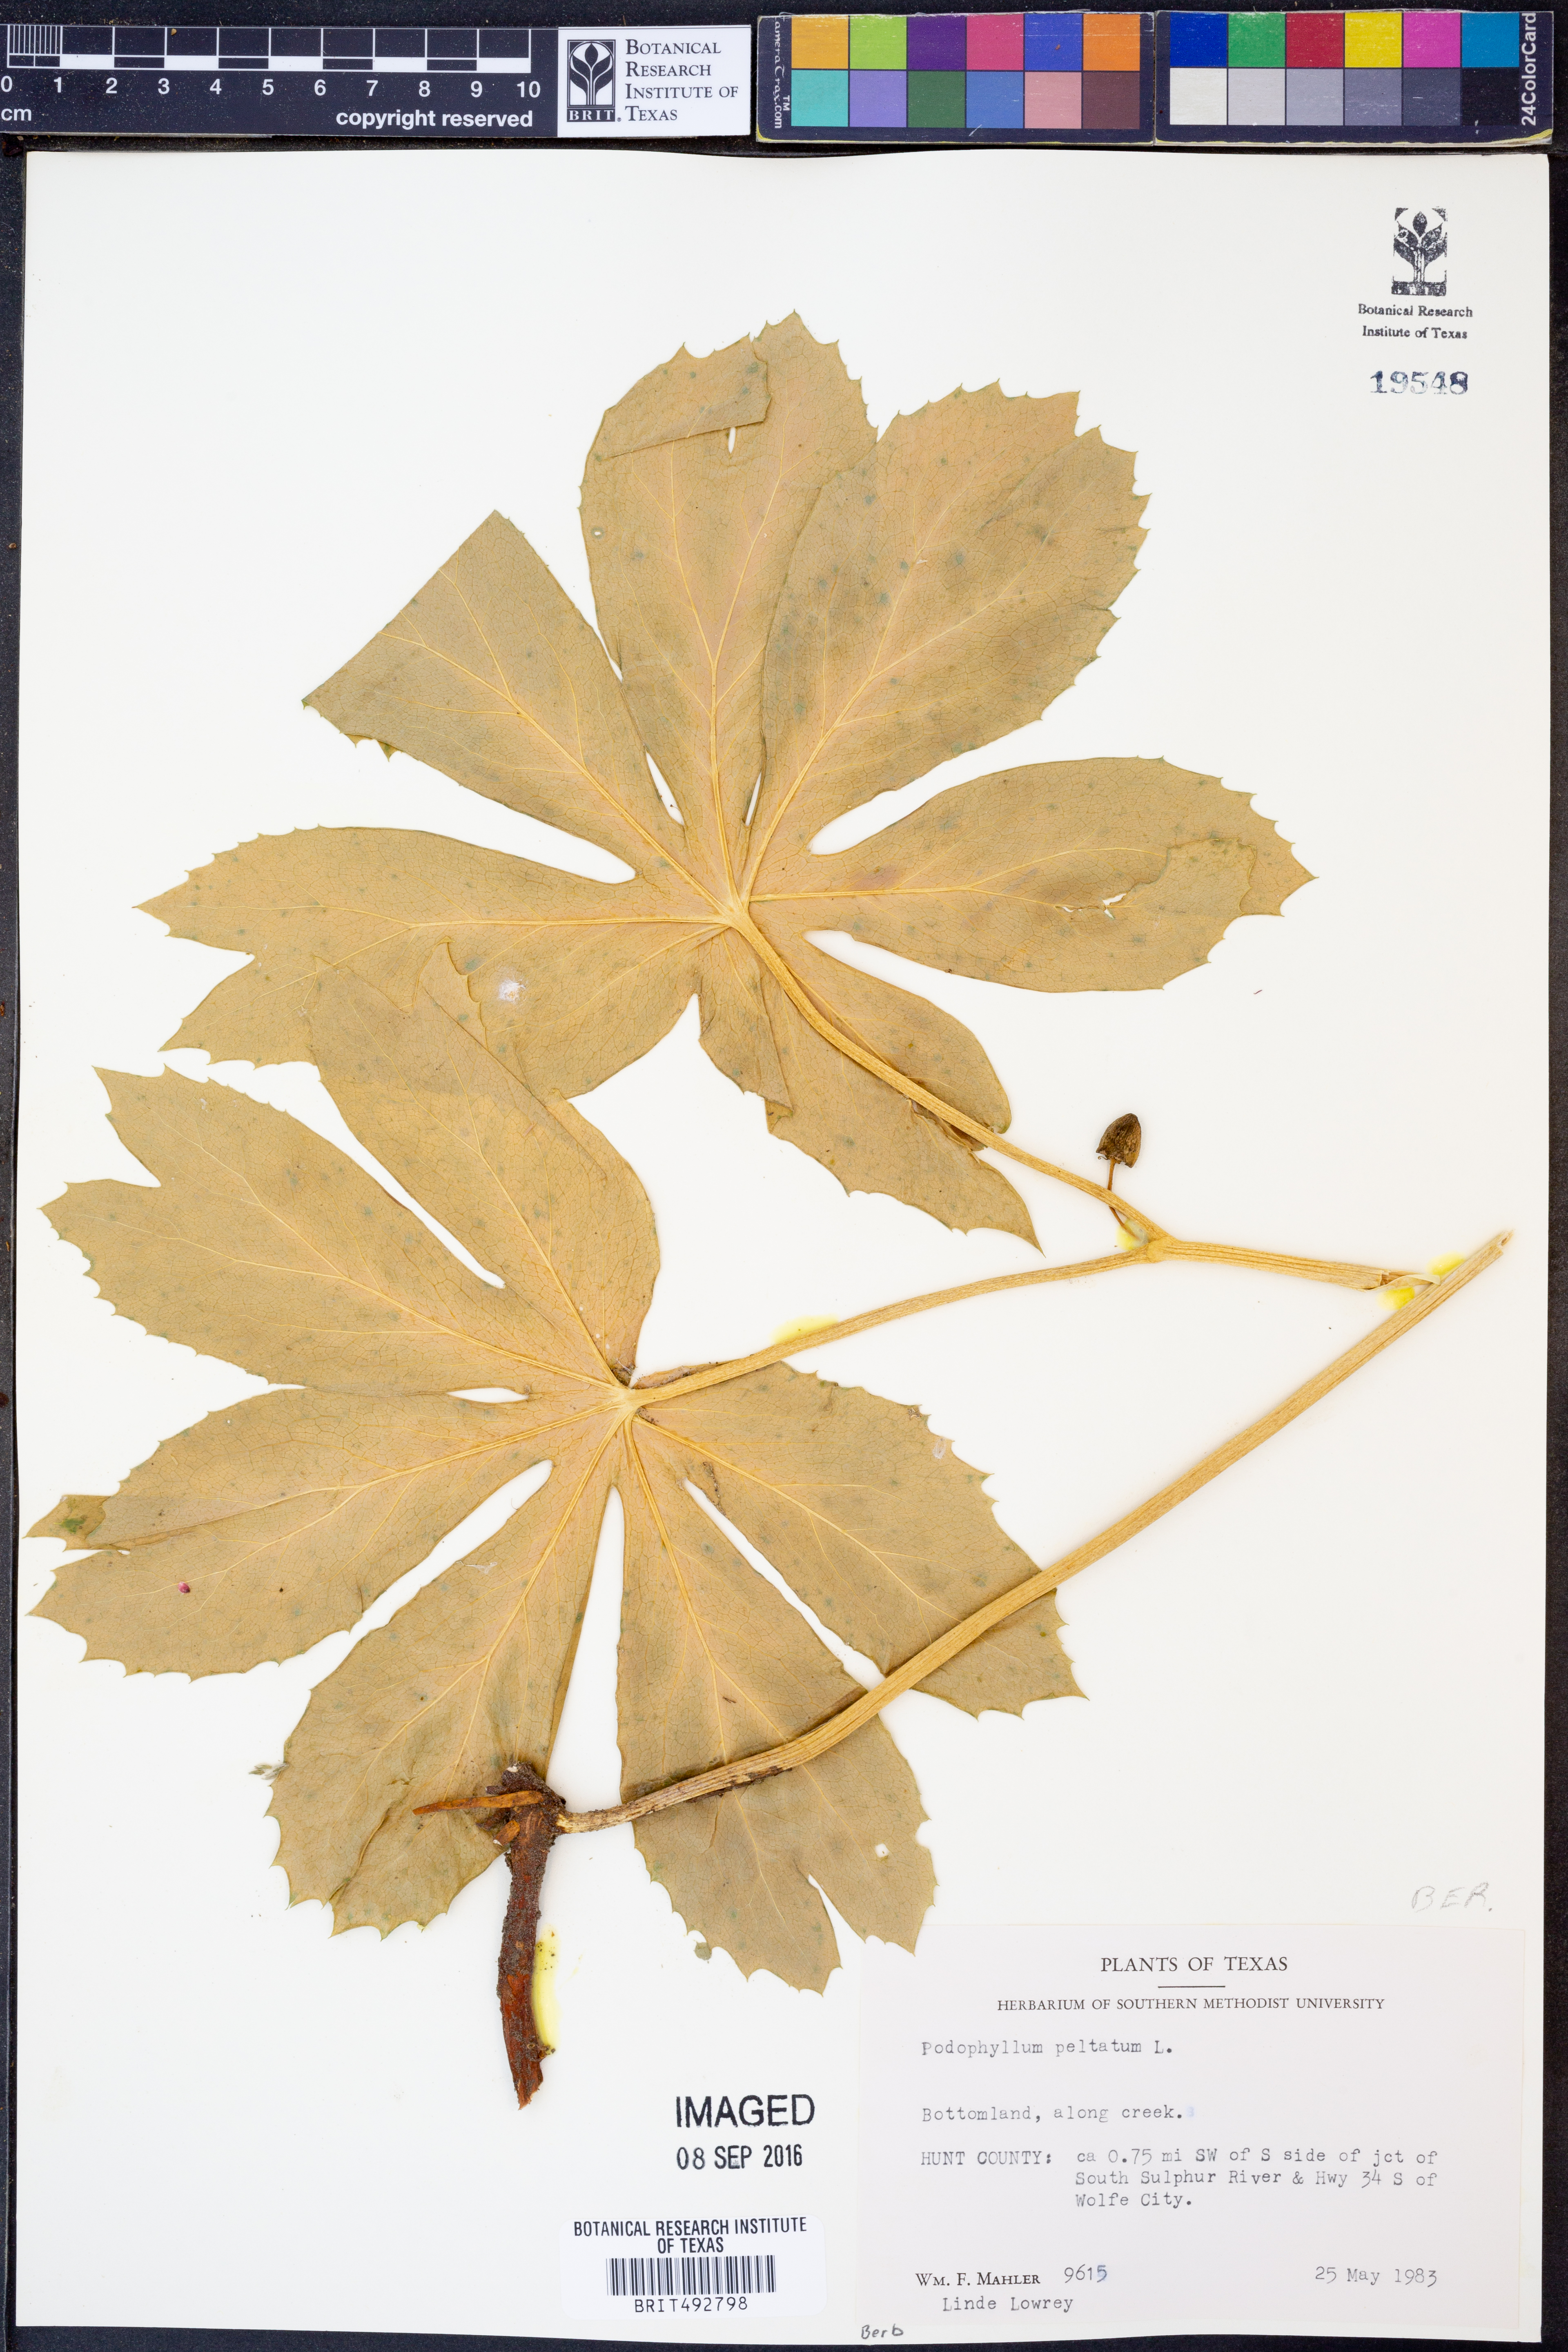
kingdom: Plantae
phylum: Tracheophyta
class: Magnoliopsida
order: Ranunculales
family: Berberidaceae
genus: Podophyllum
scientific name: Podophyllum peltatum
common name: Wild mandrake
